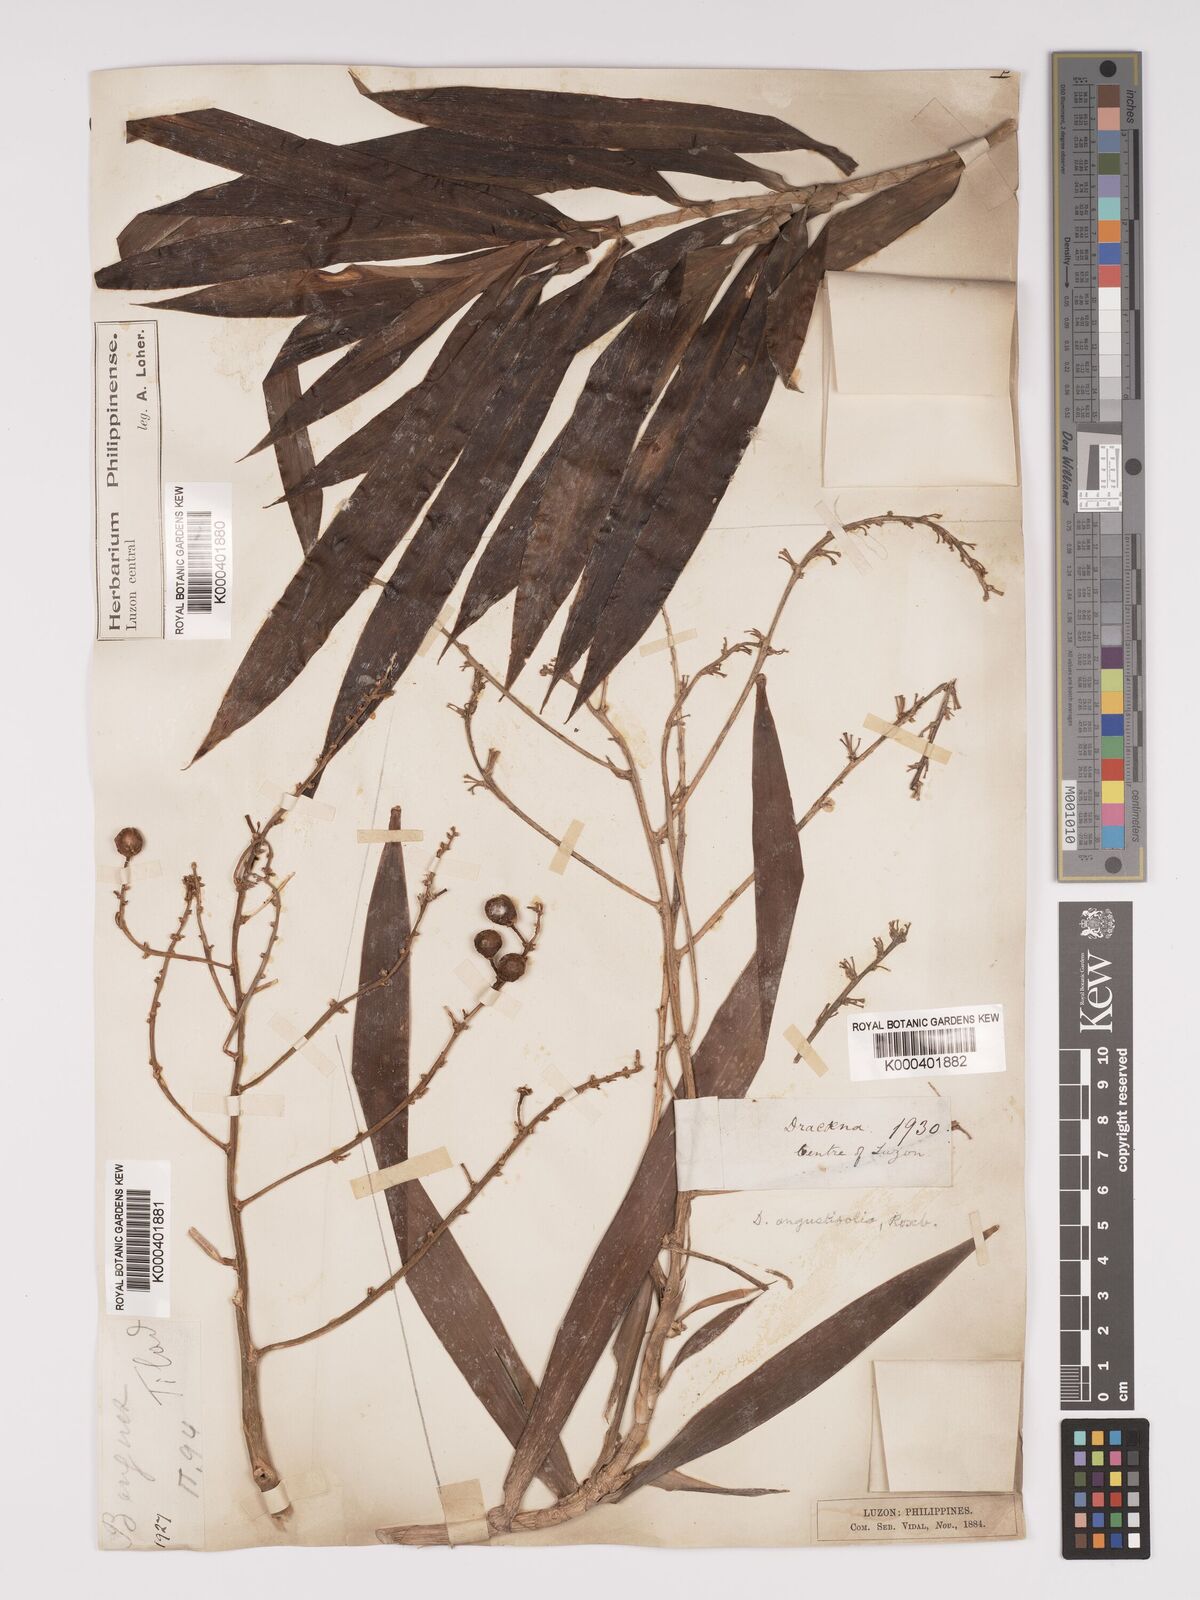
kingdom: Plantae
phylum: Tracheophyta
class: Liliopsida
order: Asparagales
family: Asparagaceae
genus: Dracaena
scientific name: Dracaena angustifolia
